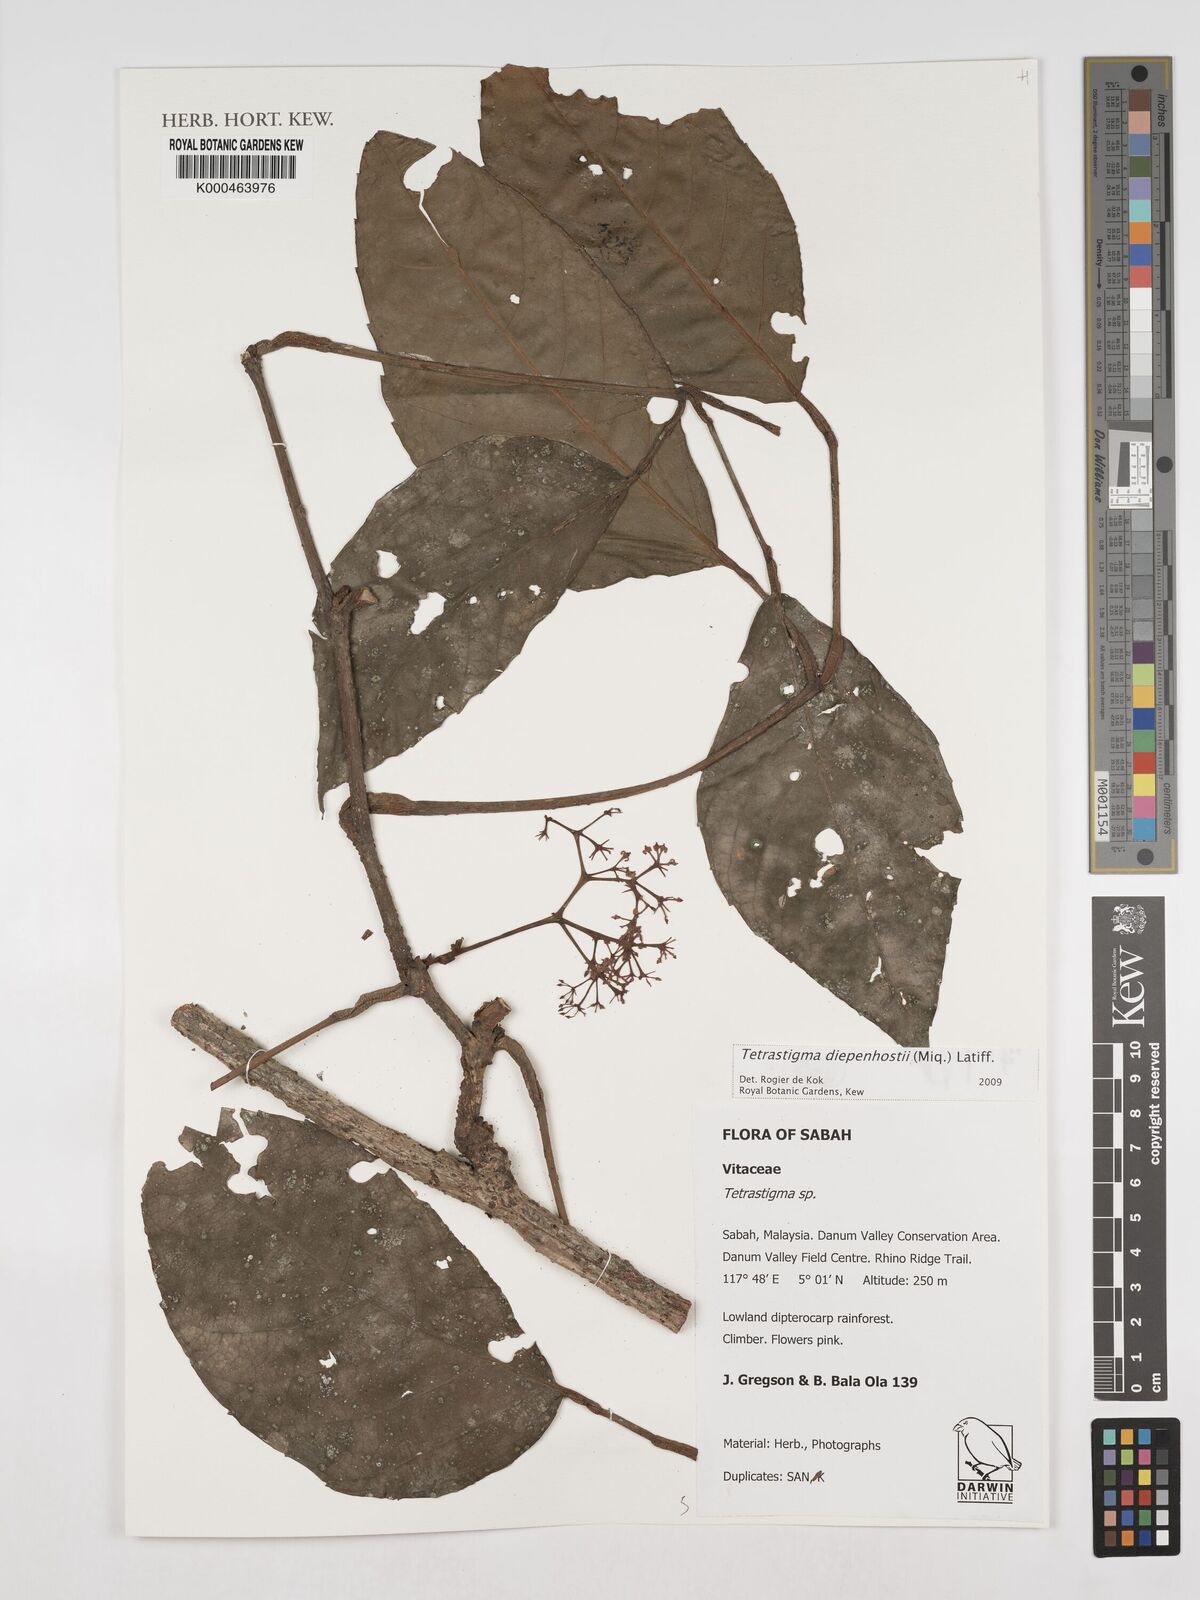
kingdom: Plantae
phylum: Tracheophyta
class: Magnoliopsida
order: Vitales
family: Vitaceae
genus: Tetrastigma
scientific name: Tetrastigma diepenhorstii
